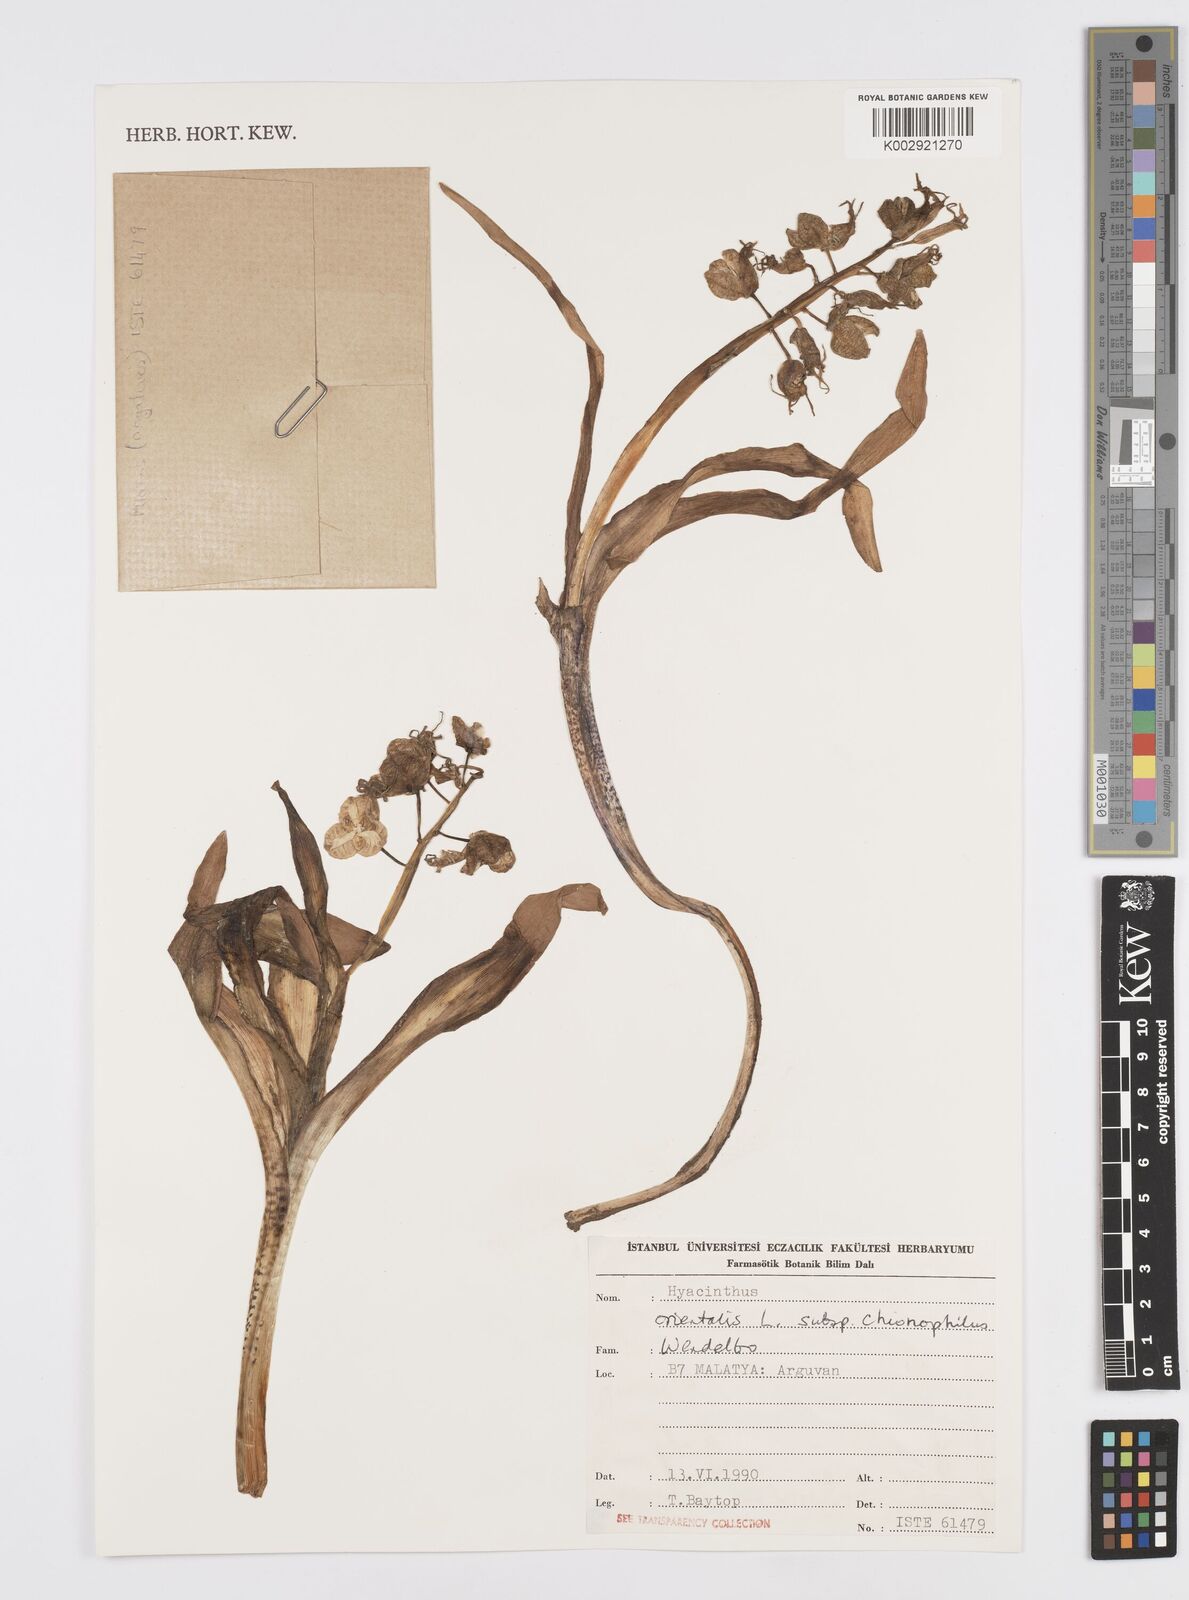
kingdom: Plantae
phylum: Tracheophyta
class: Liliopsida
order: Asparagales
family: Asparagaceae
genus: Hyacinthus
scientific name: Hyacinthus orientalis
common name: Hyacinth
